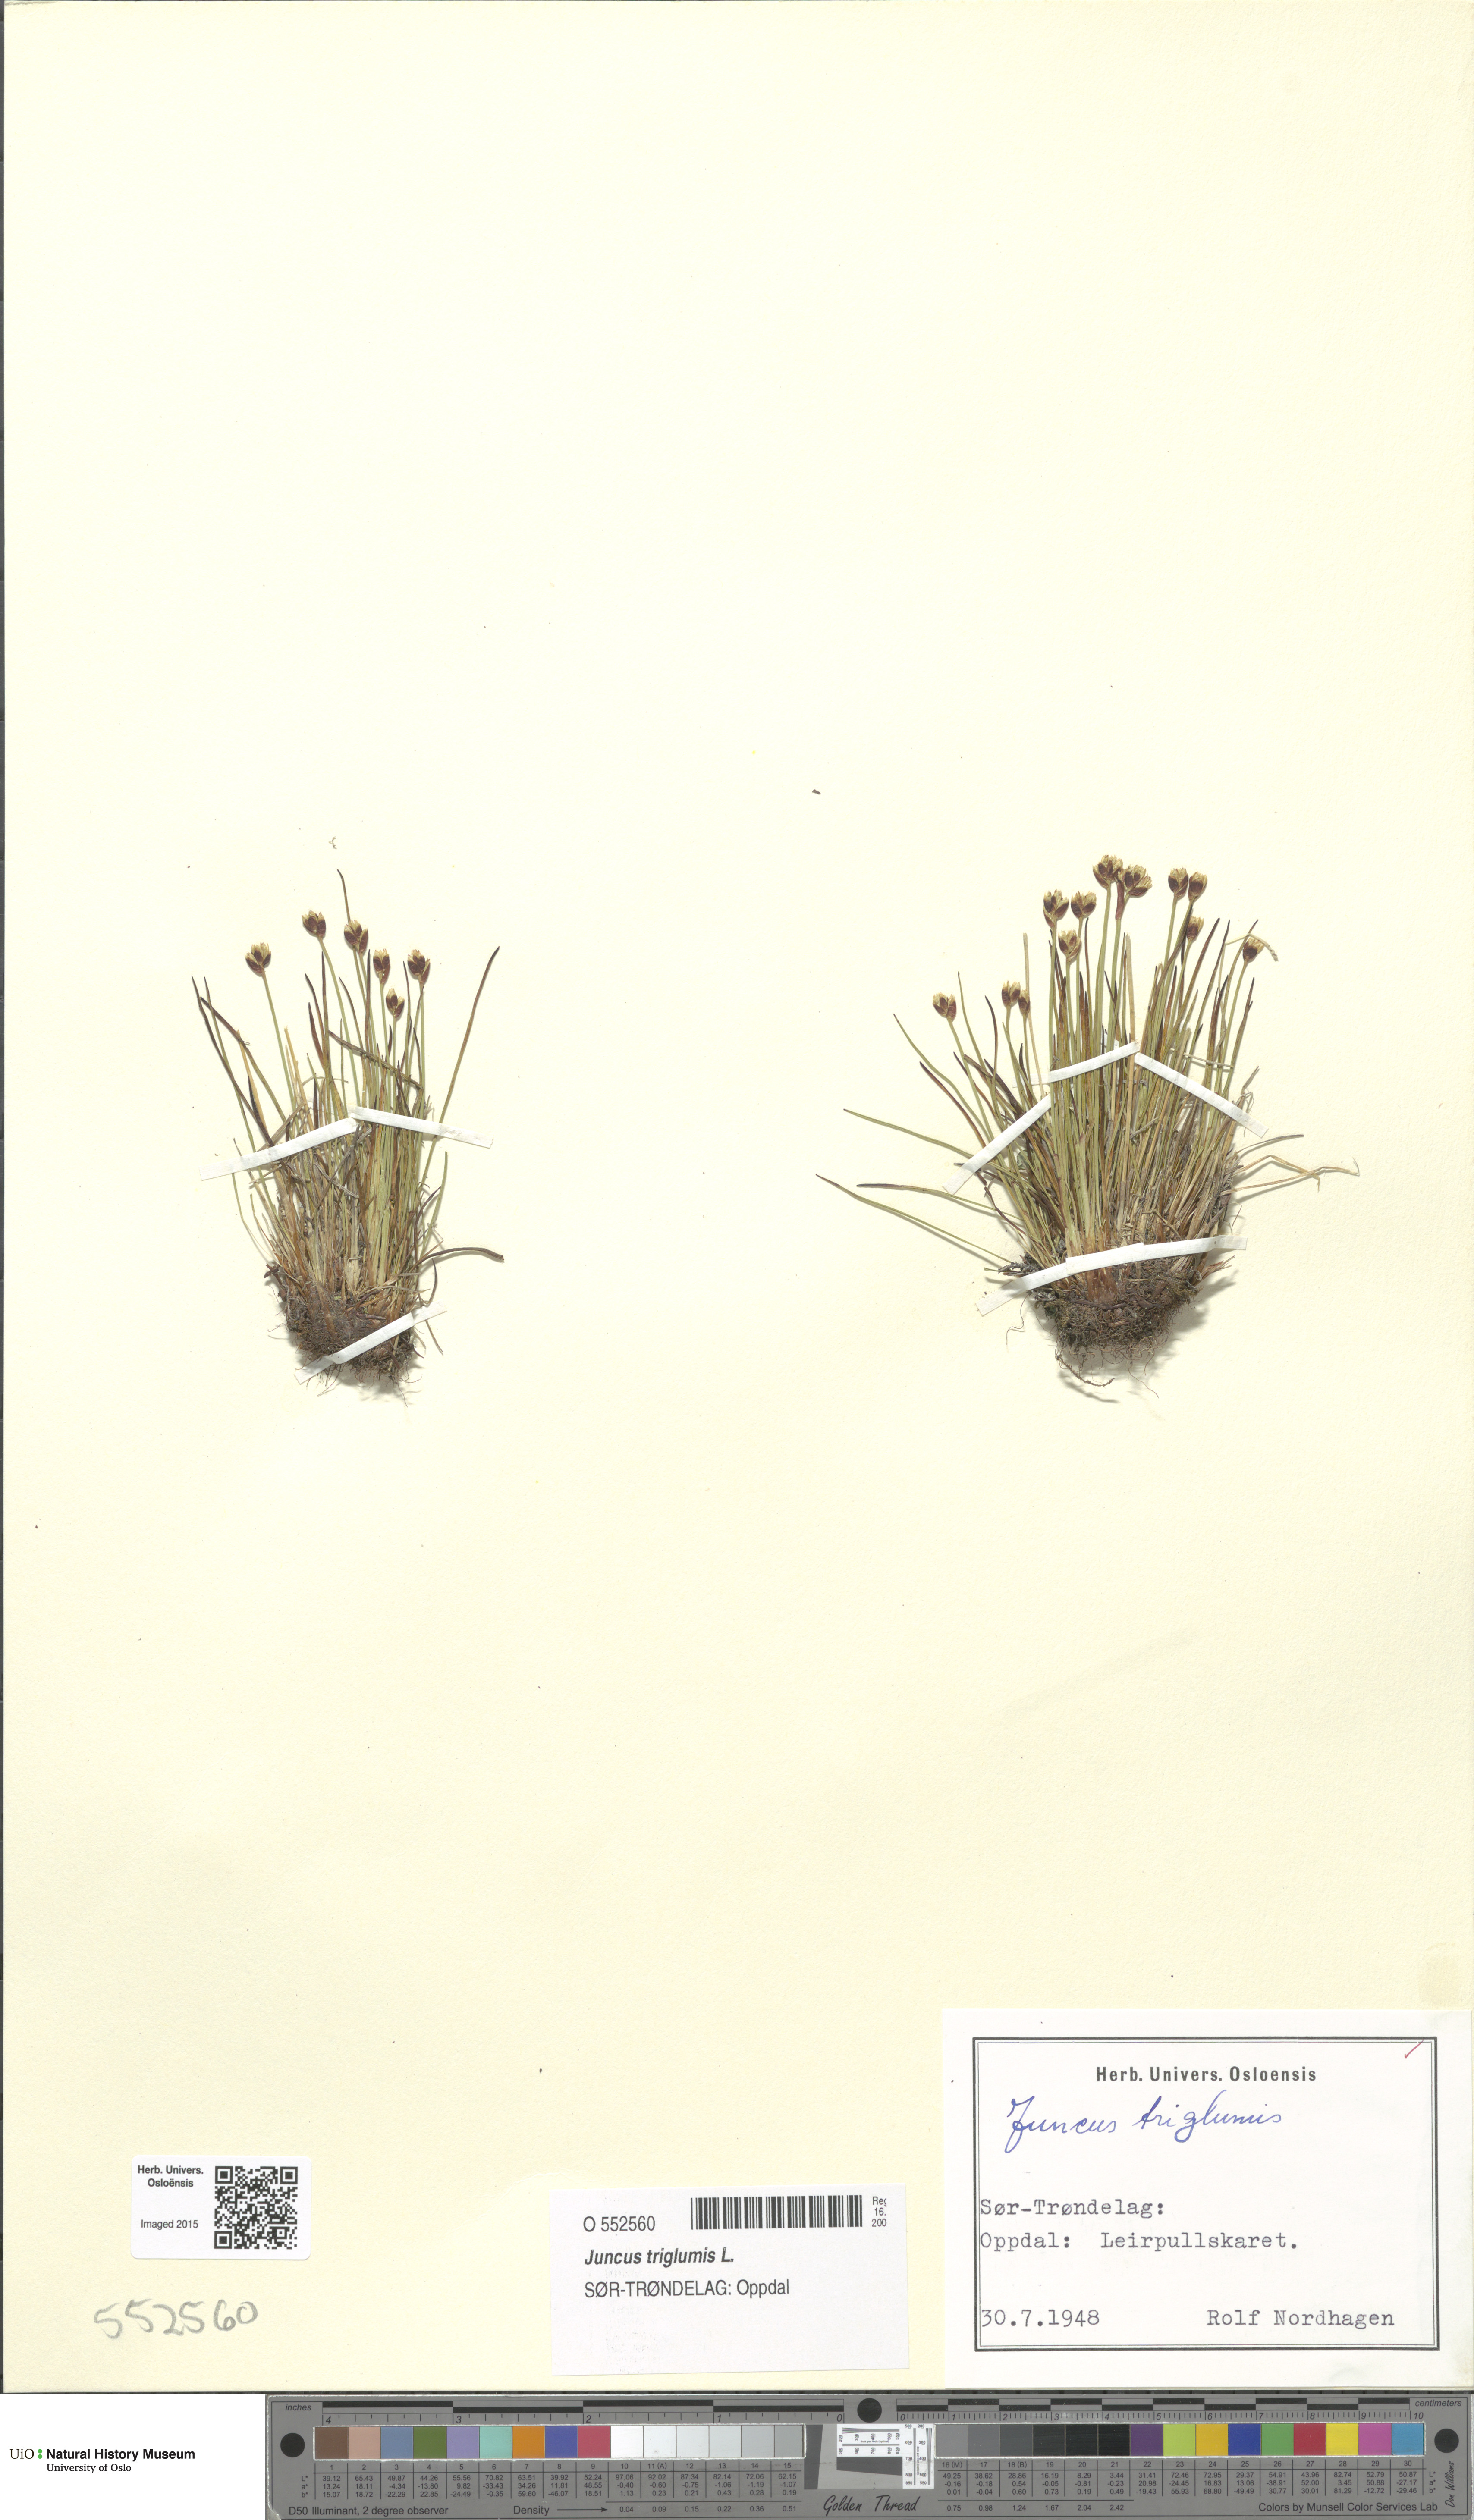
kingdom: Plantae
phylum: Tracheophyta
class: Liliopsida
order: Poales
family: Juncaceae
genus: Juncus
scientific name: Juncus triglumis
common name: Three-flowered rush
